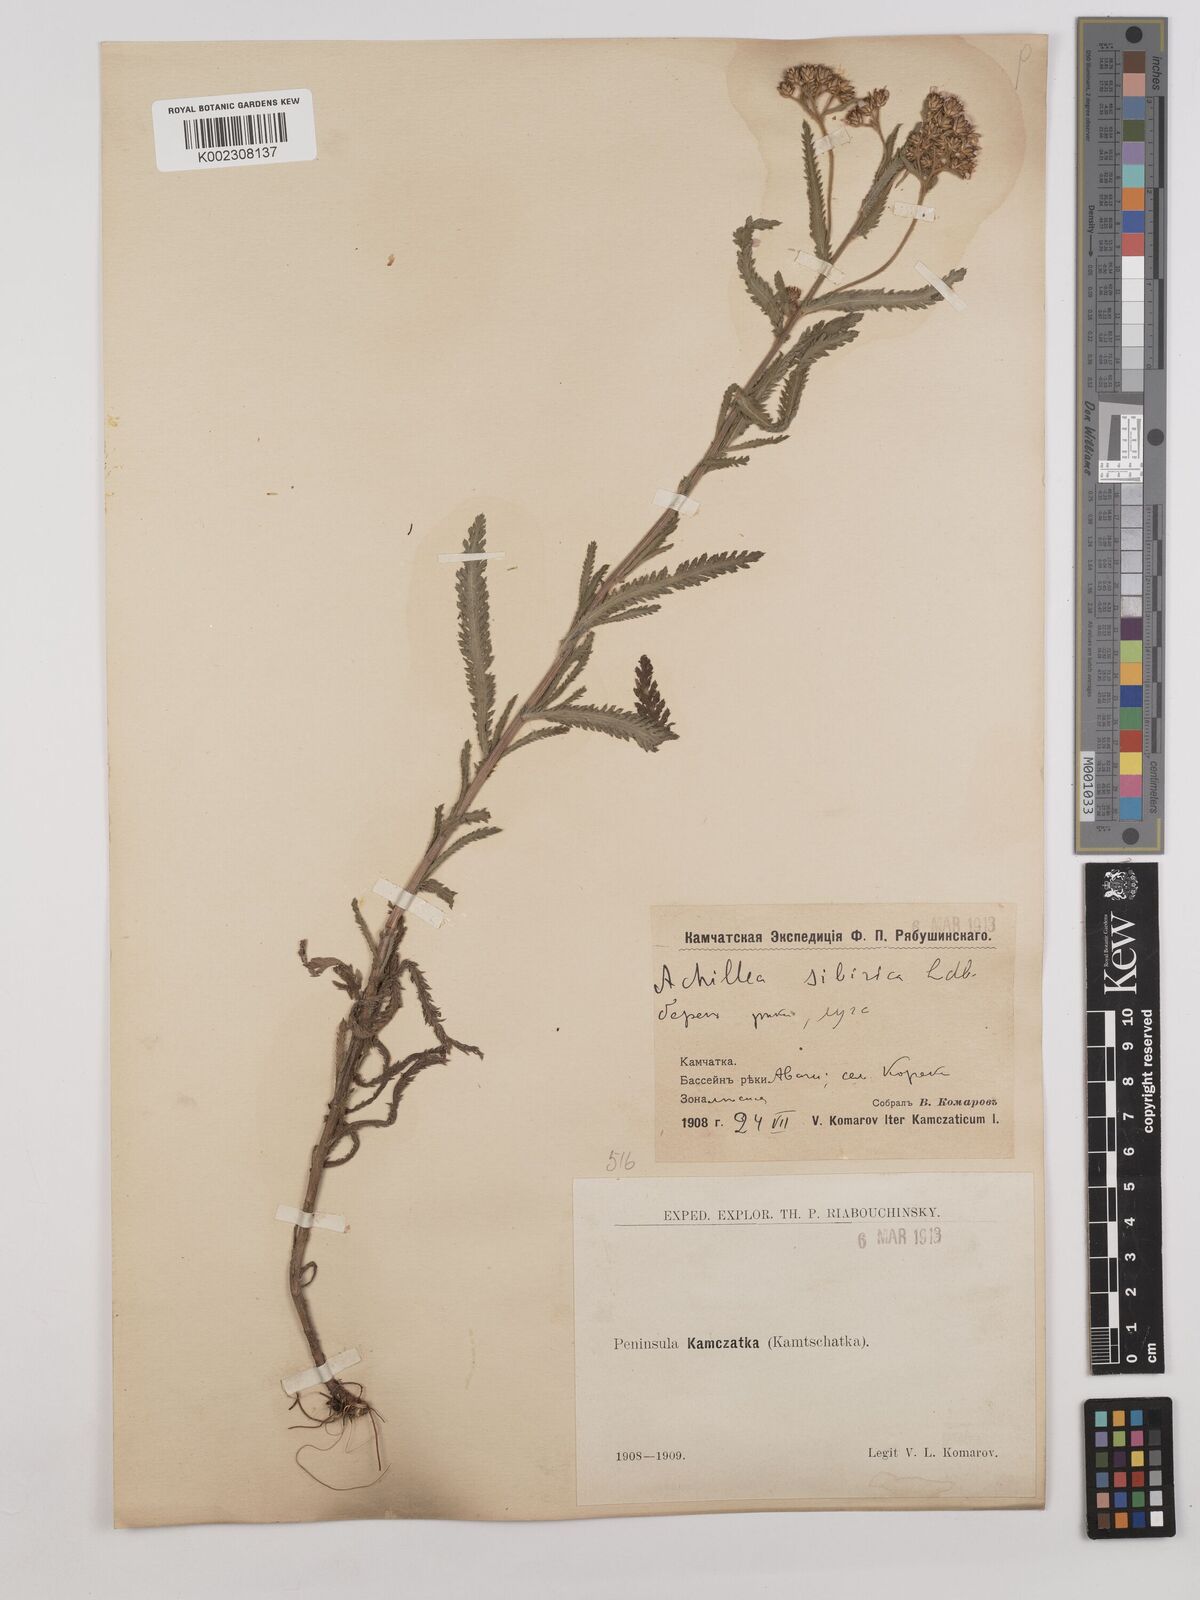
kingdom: Plantae
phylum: Tracheophyta
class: Magnoliopsida
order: Asterales
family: Asteraceae
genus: Achillea
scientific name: Achillea alpina
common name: Siberian yarrow
